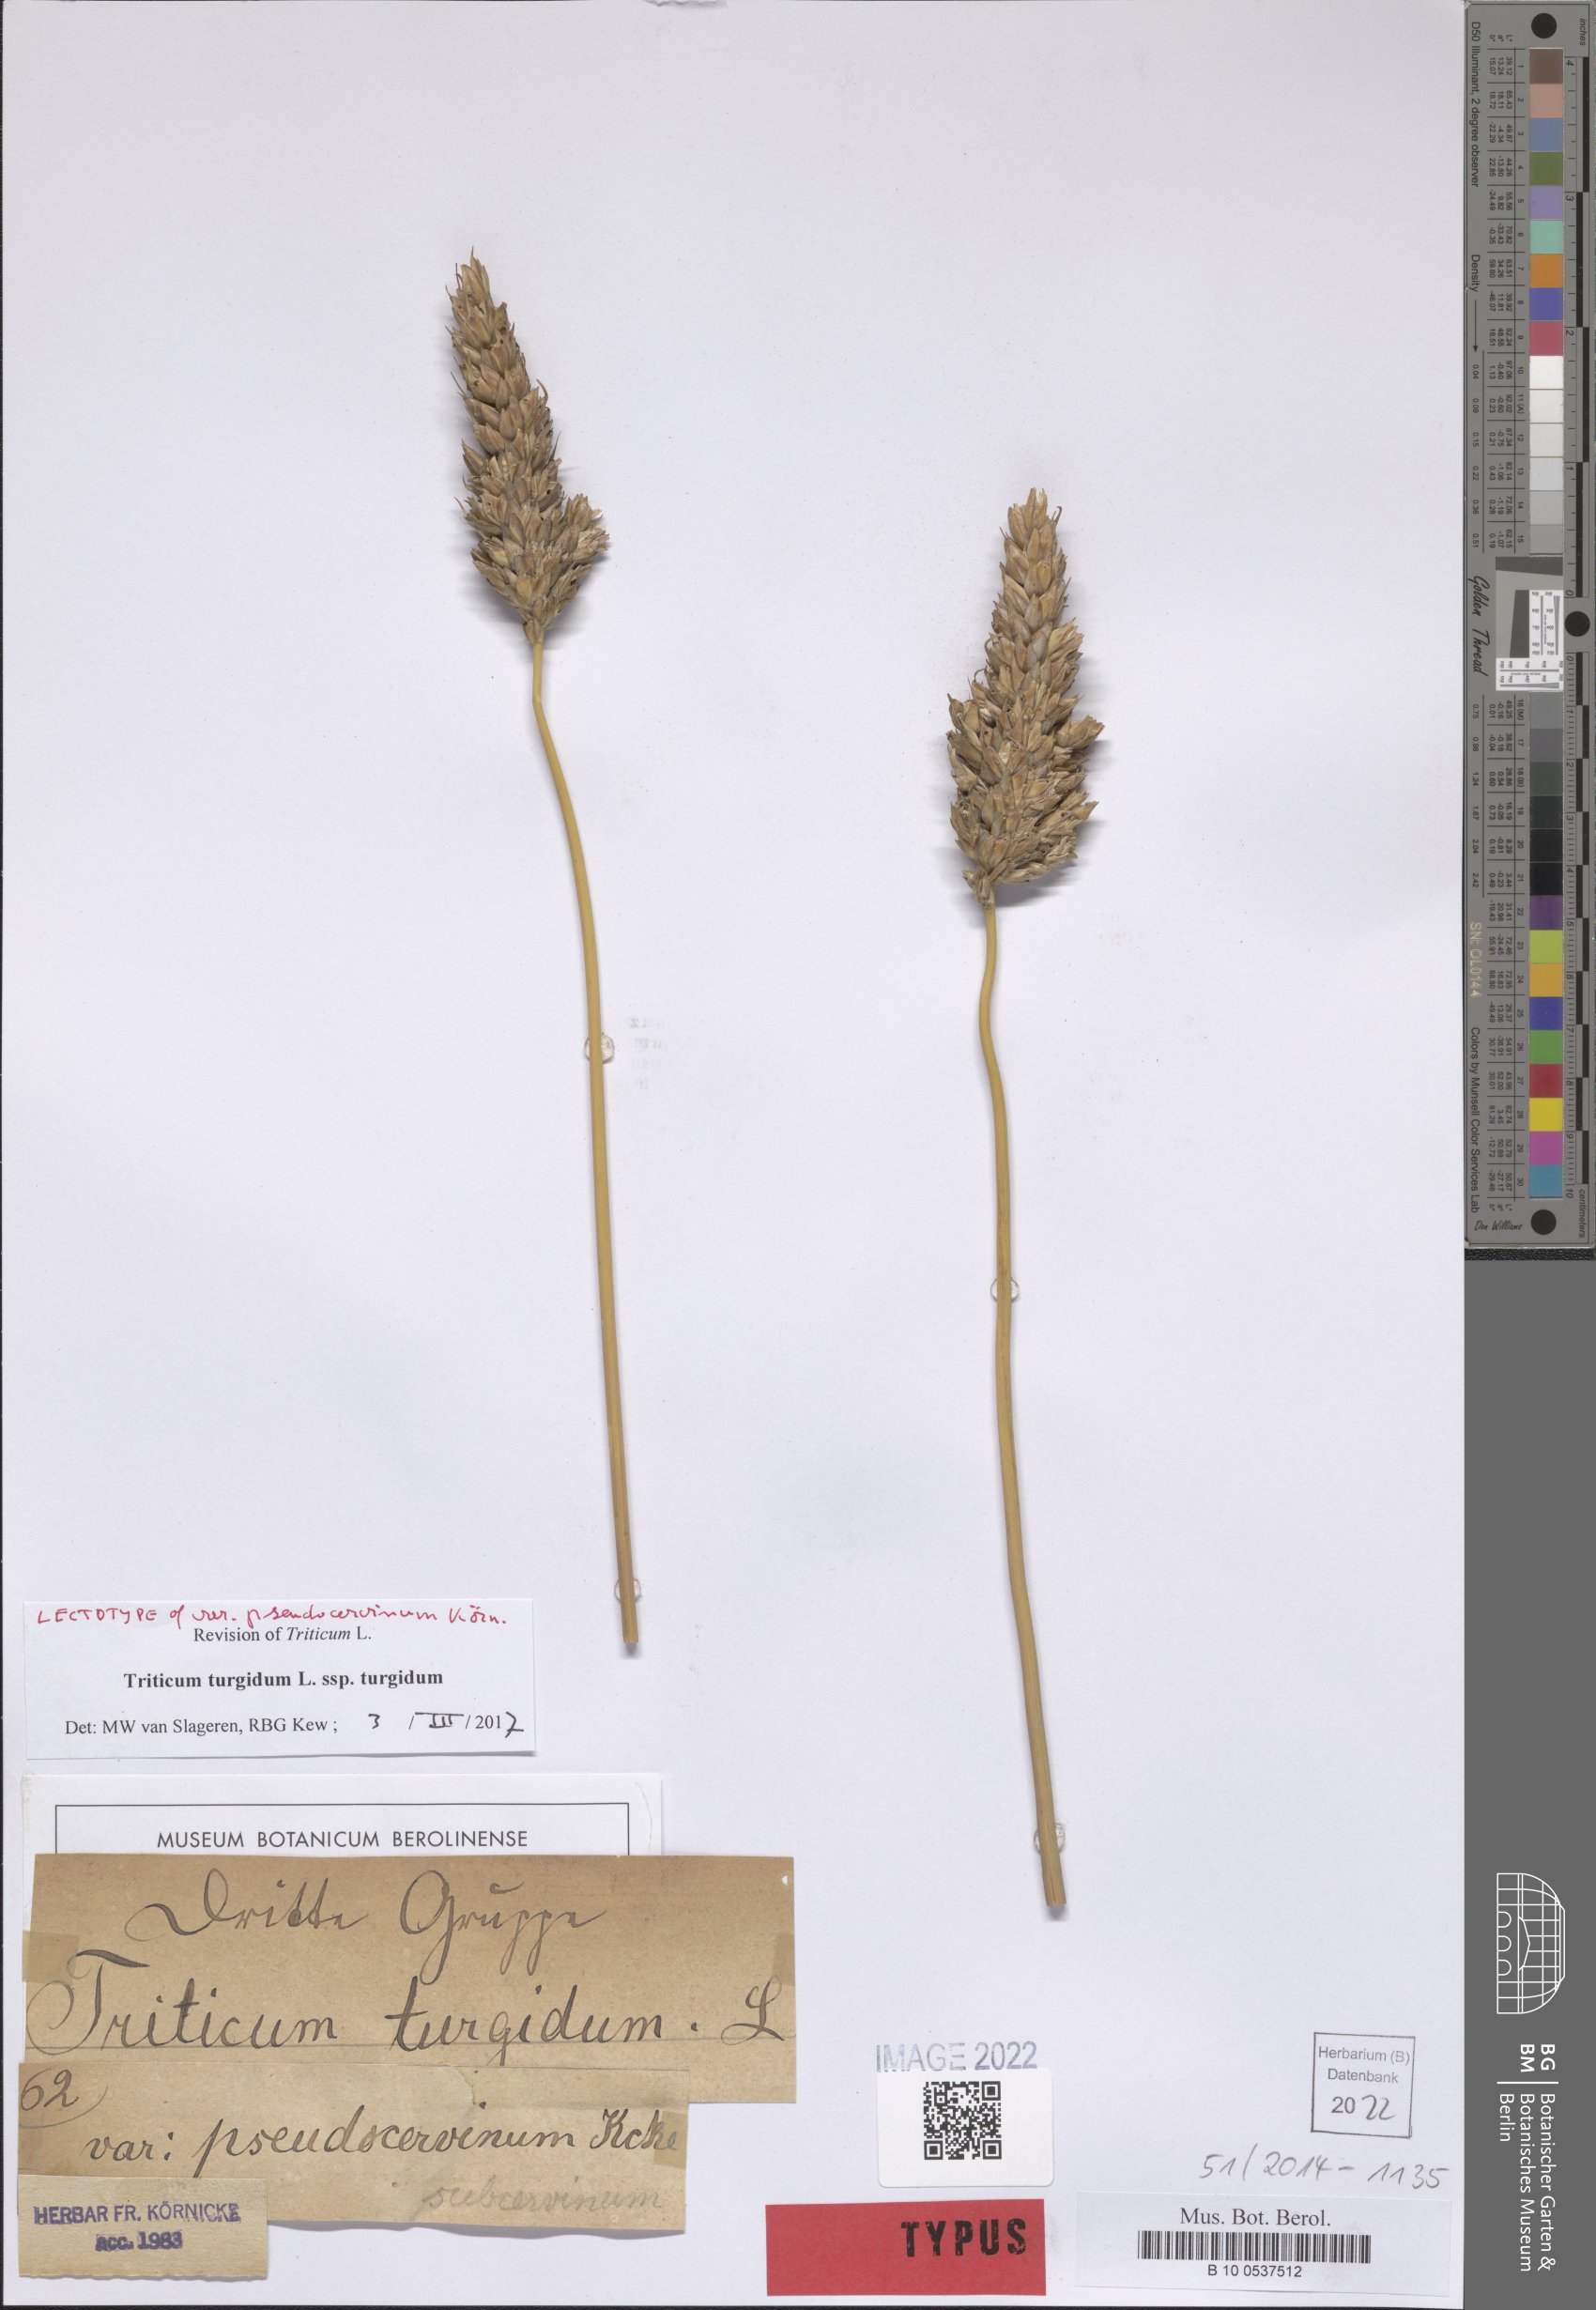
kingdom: Plantae
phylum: Tracheophyta
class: Liliopsida
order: Poales
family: Poaceae
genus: Triticum
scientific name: Triticum turgidum
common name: Rivet wheat
